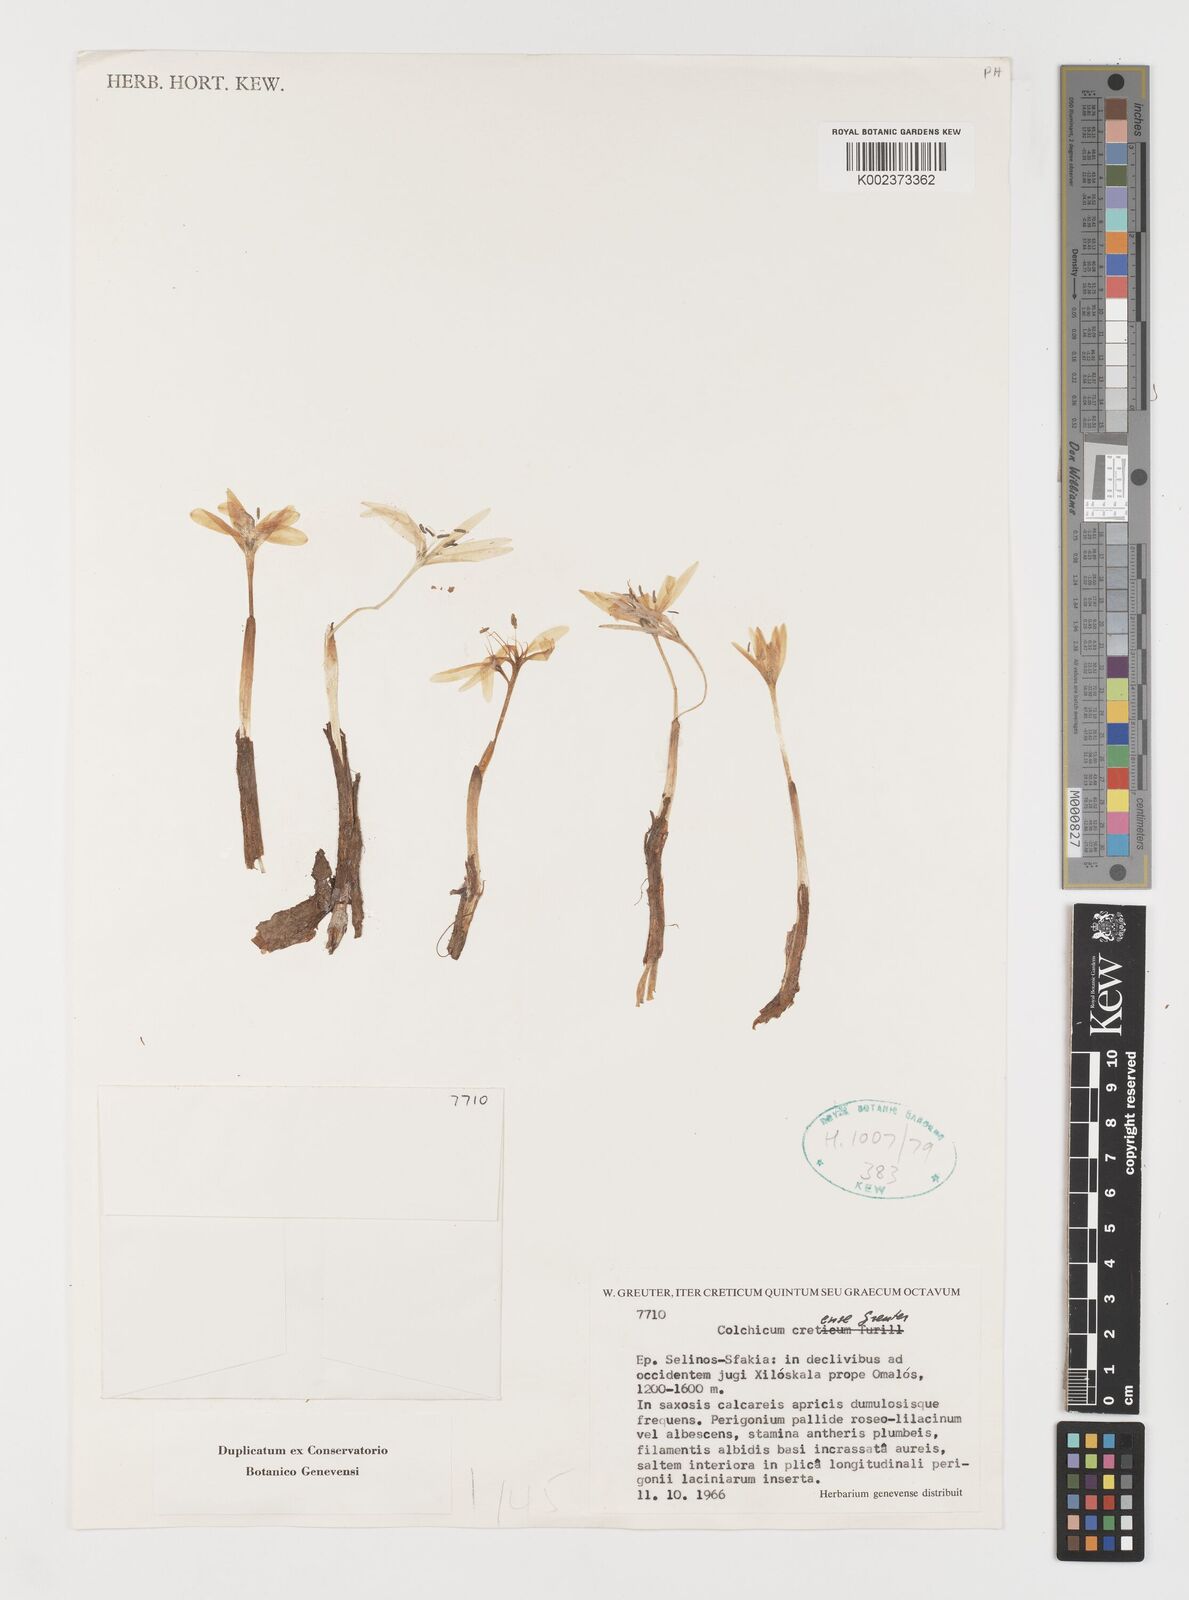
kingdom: Plantae
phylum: Tracheophyta
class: Liliopsida
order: Liliales
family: Colchicaceae
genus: Colchicum
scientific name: Colchicum cretense
